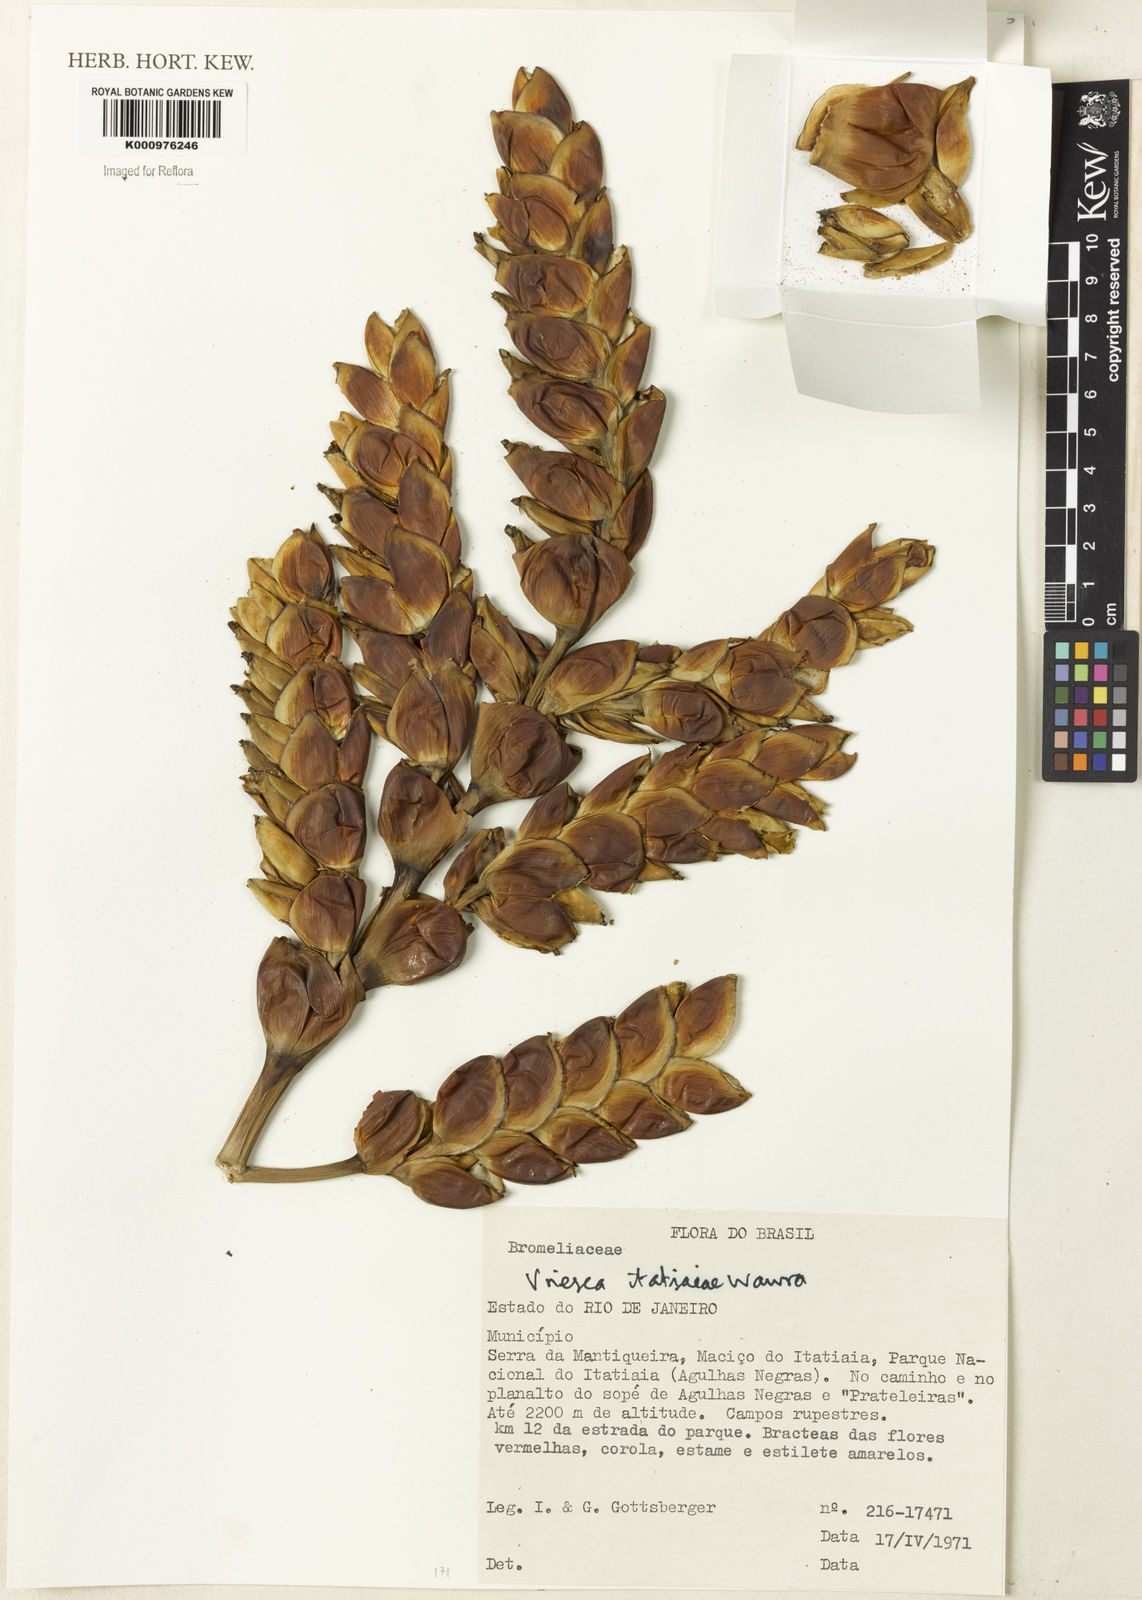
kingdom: Plantae
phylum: Tracheophyta
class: Liliopsida
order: Poales
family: Bromeliaceae
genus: Vriesea
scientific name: Vriesea itatiaiae
